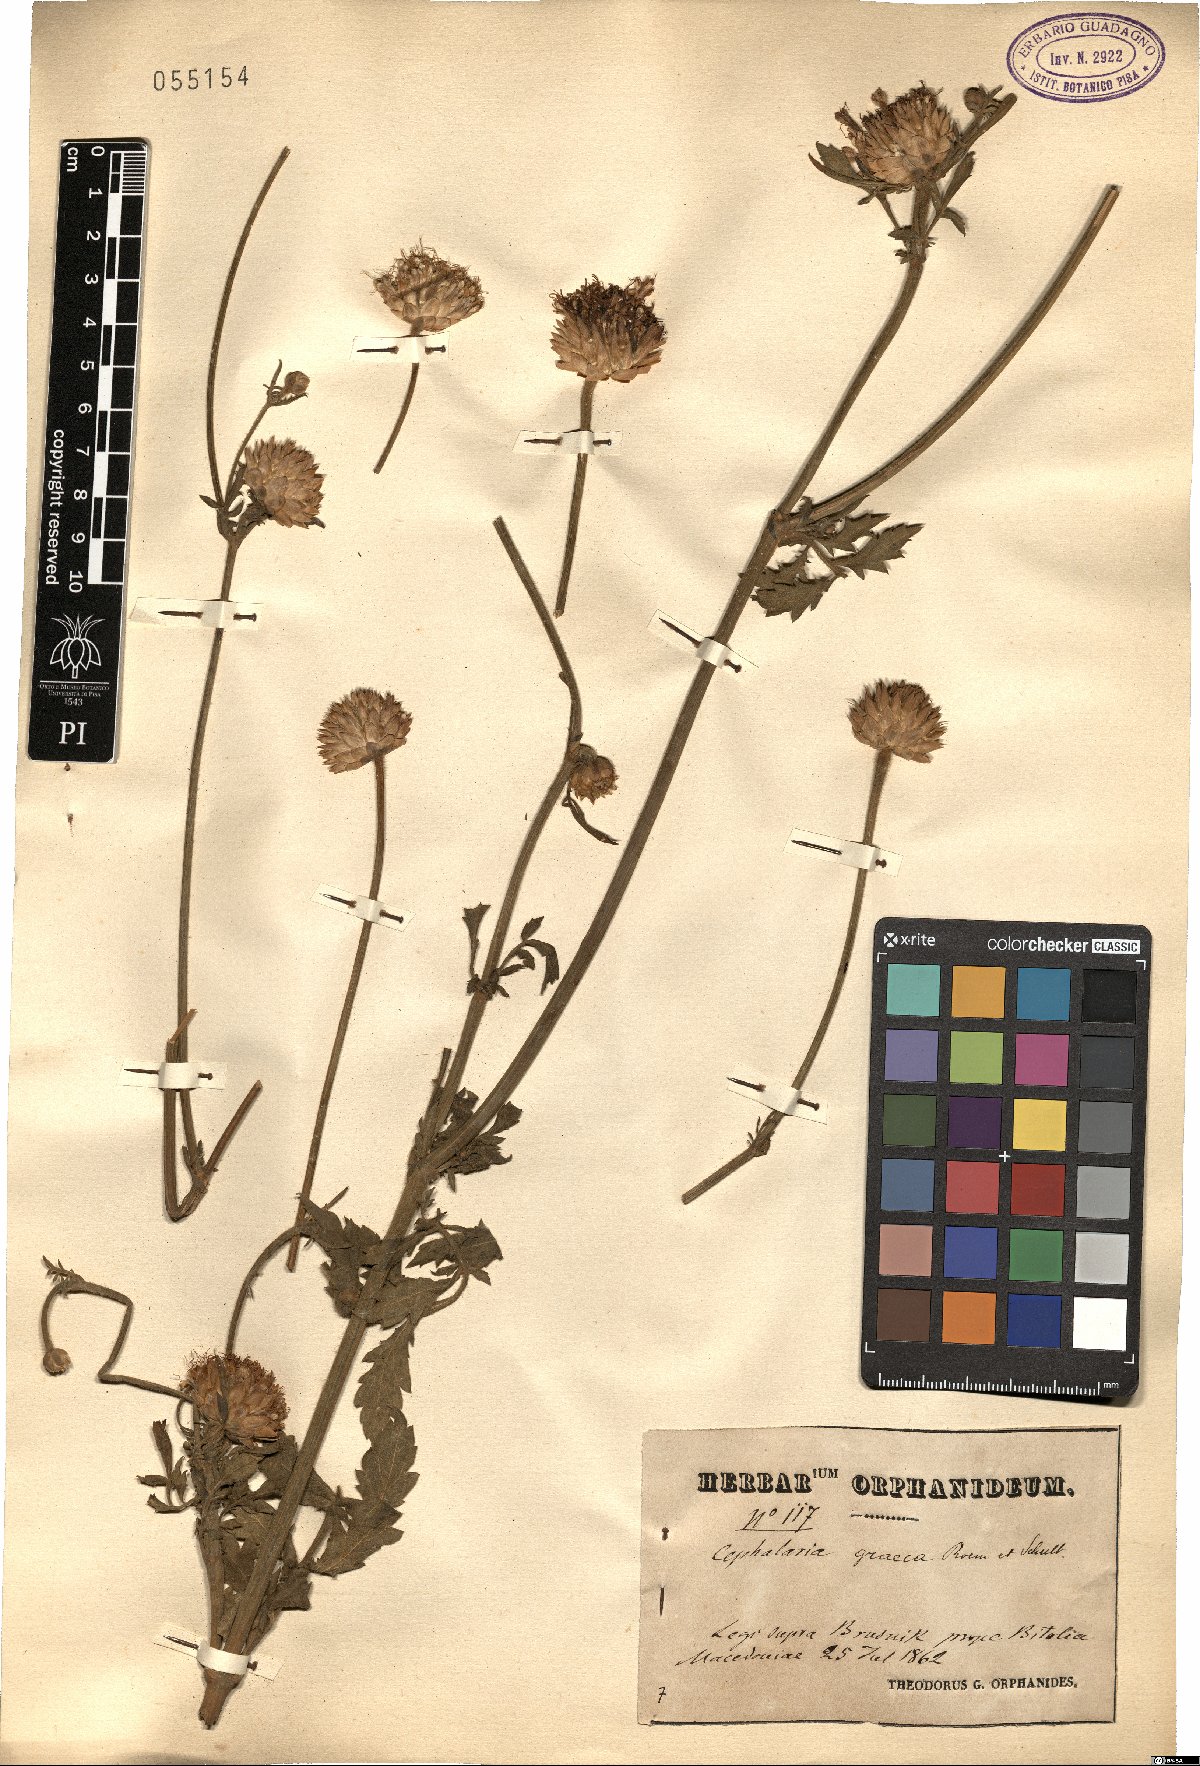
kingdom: Plantae
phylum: Tracheophyta
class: Magnoliopsida
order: Dipsacales
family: Caprifoliaceae
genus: Cephalaria
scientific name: Cephalaria flava
